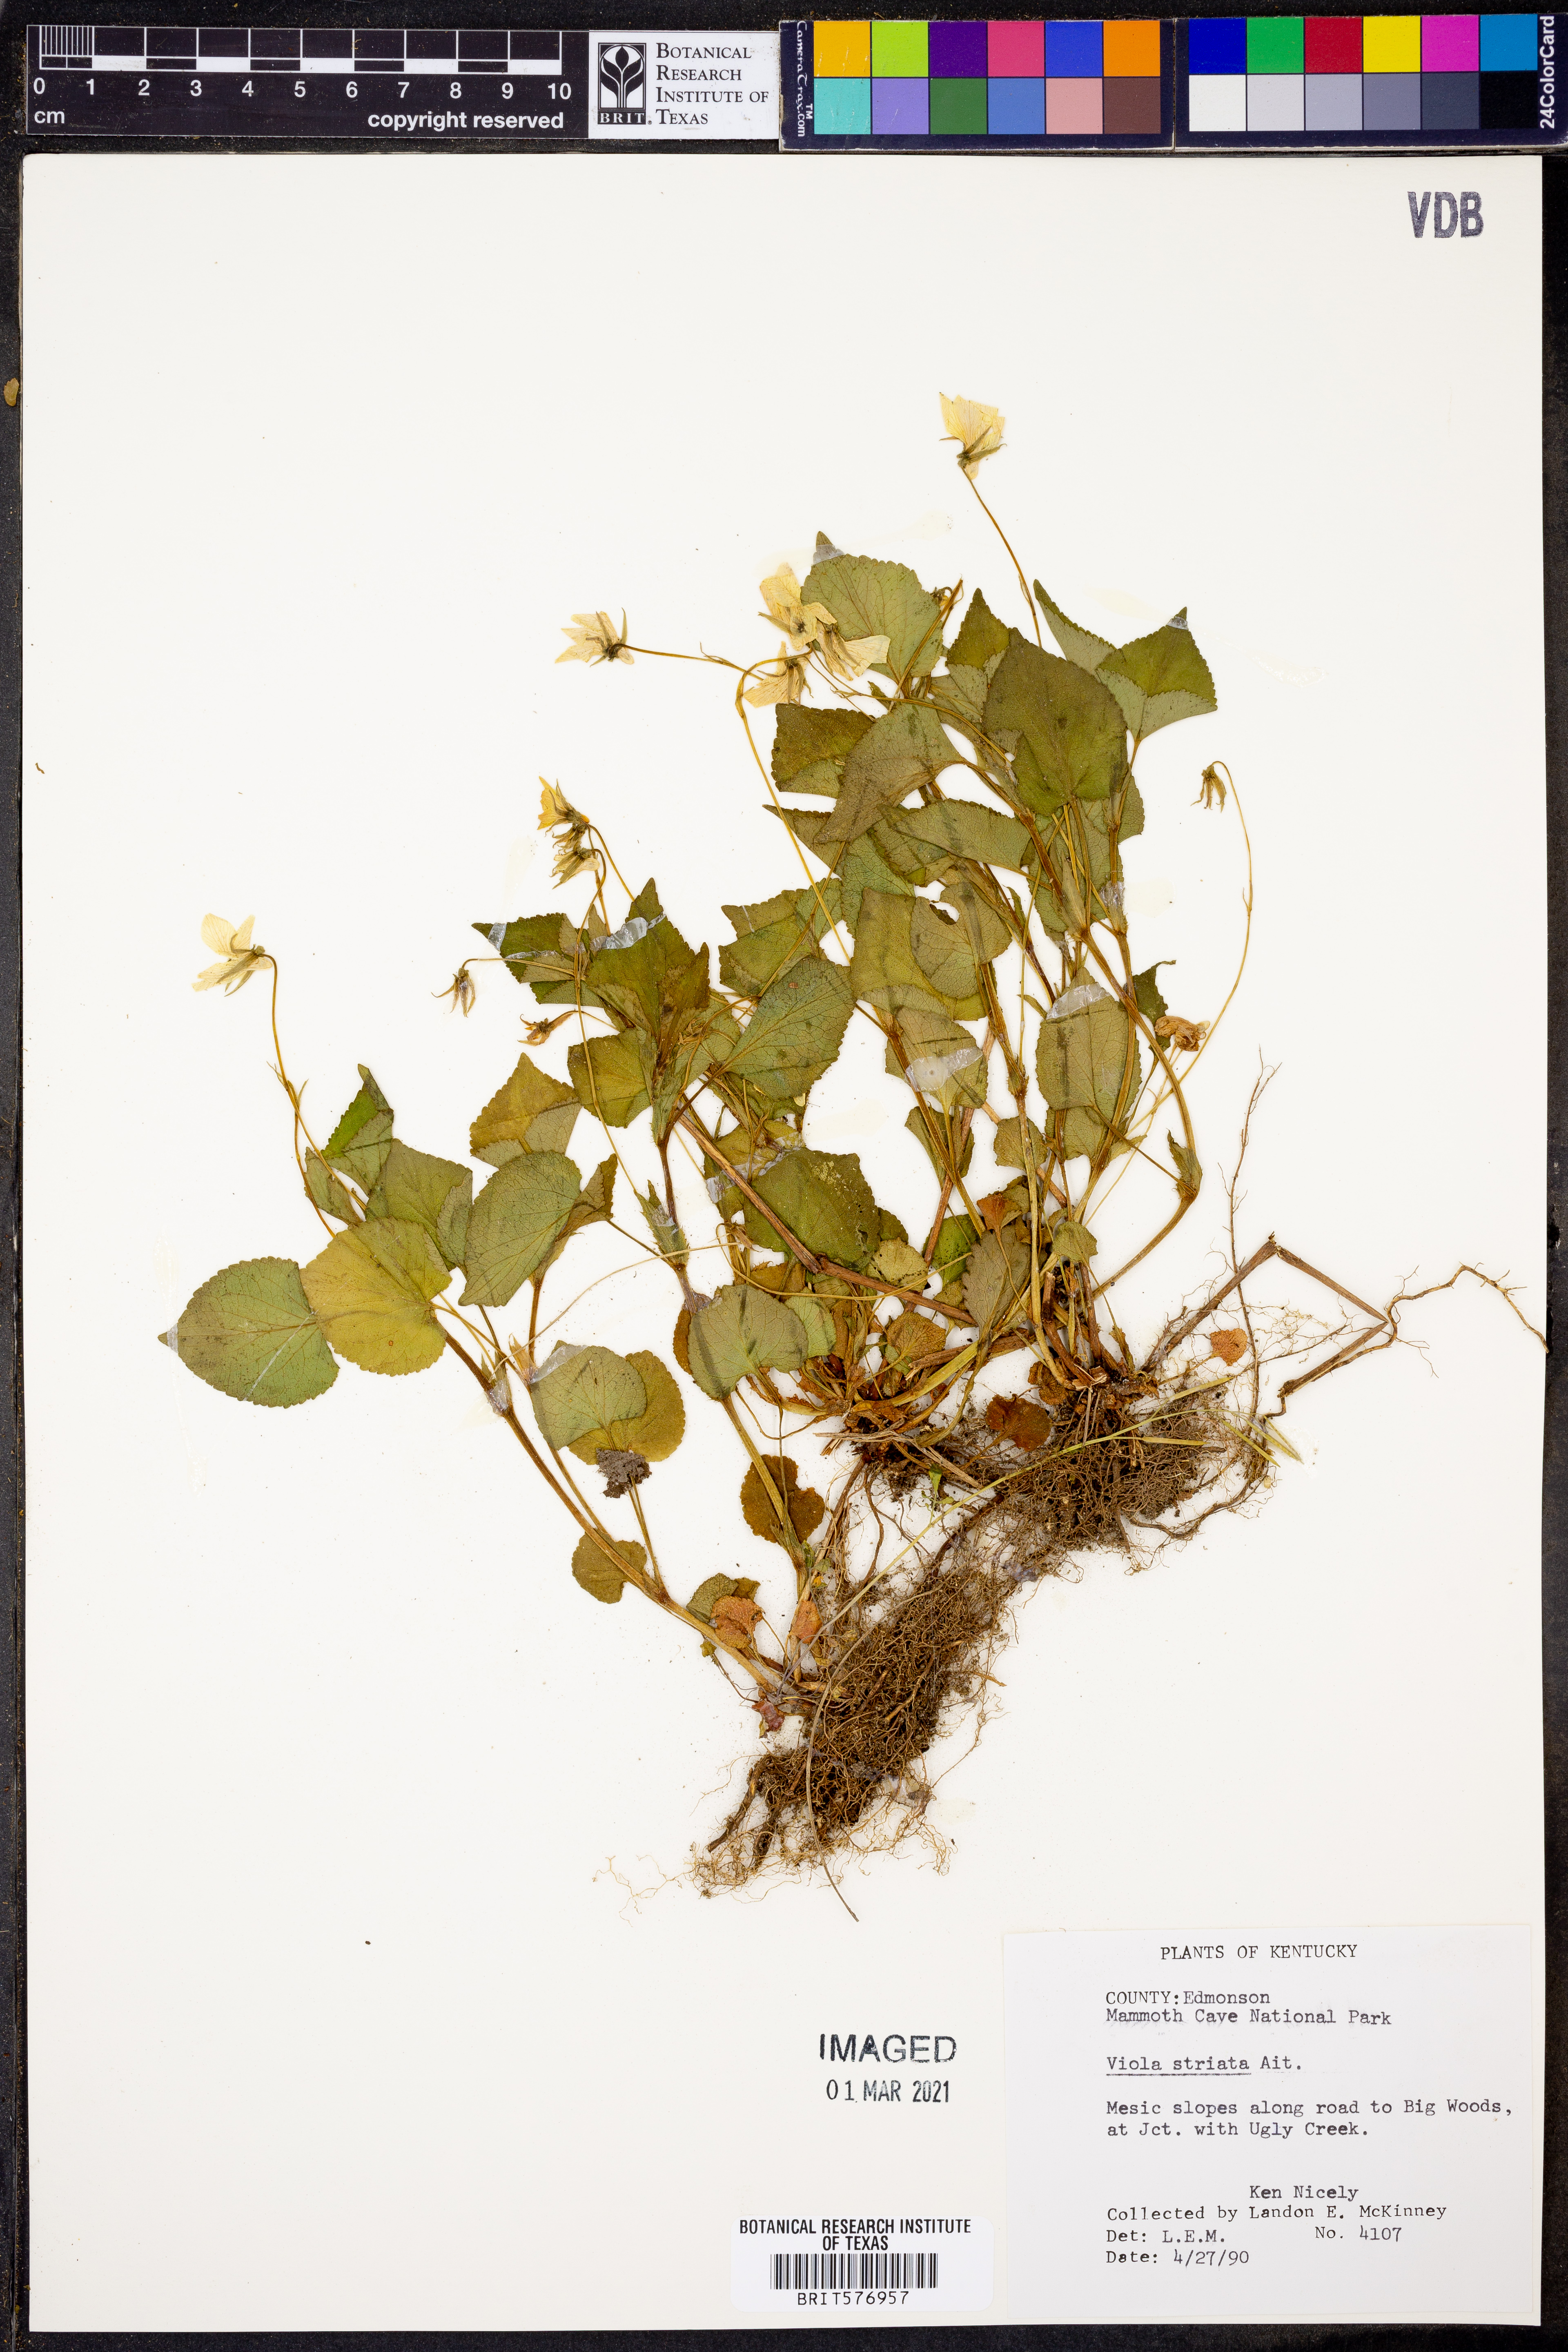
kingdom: Plantae
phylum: Tracheophyta
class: Magnoliopsida
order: Malpighiales
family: Violaceae
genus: Viola
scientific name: Viola striata
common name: Cream violet
